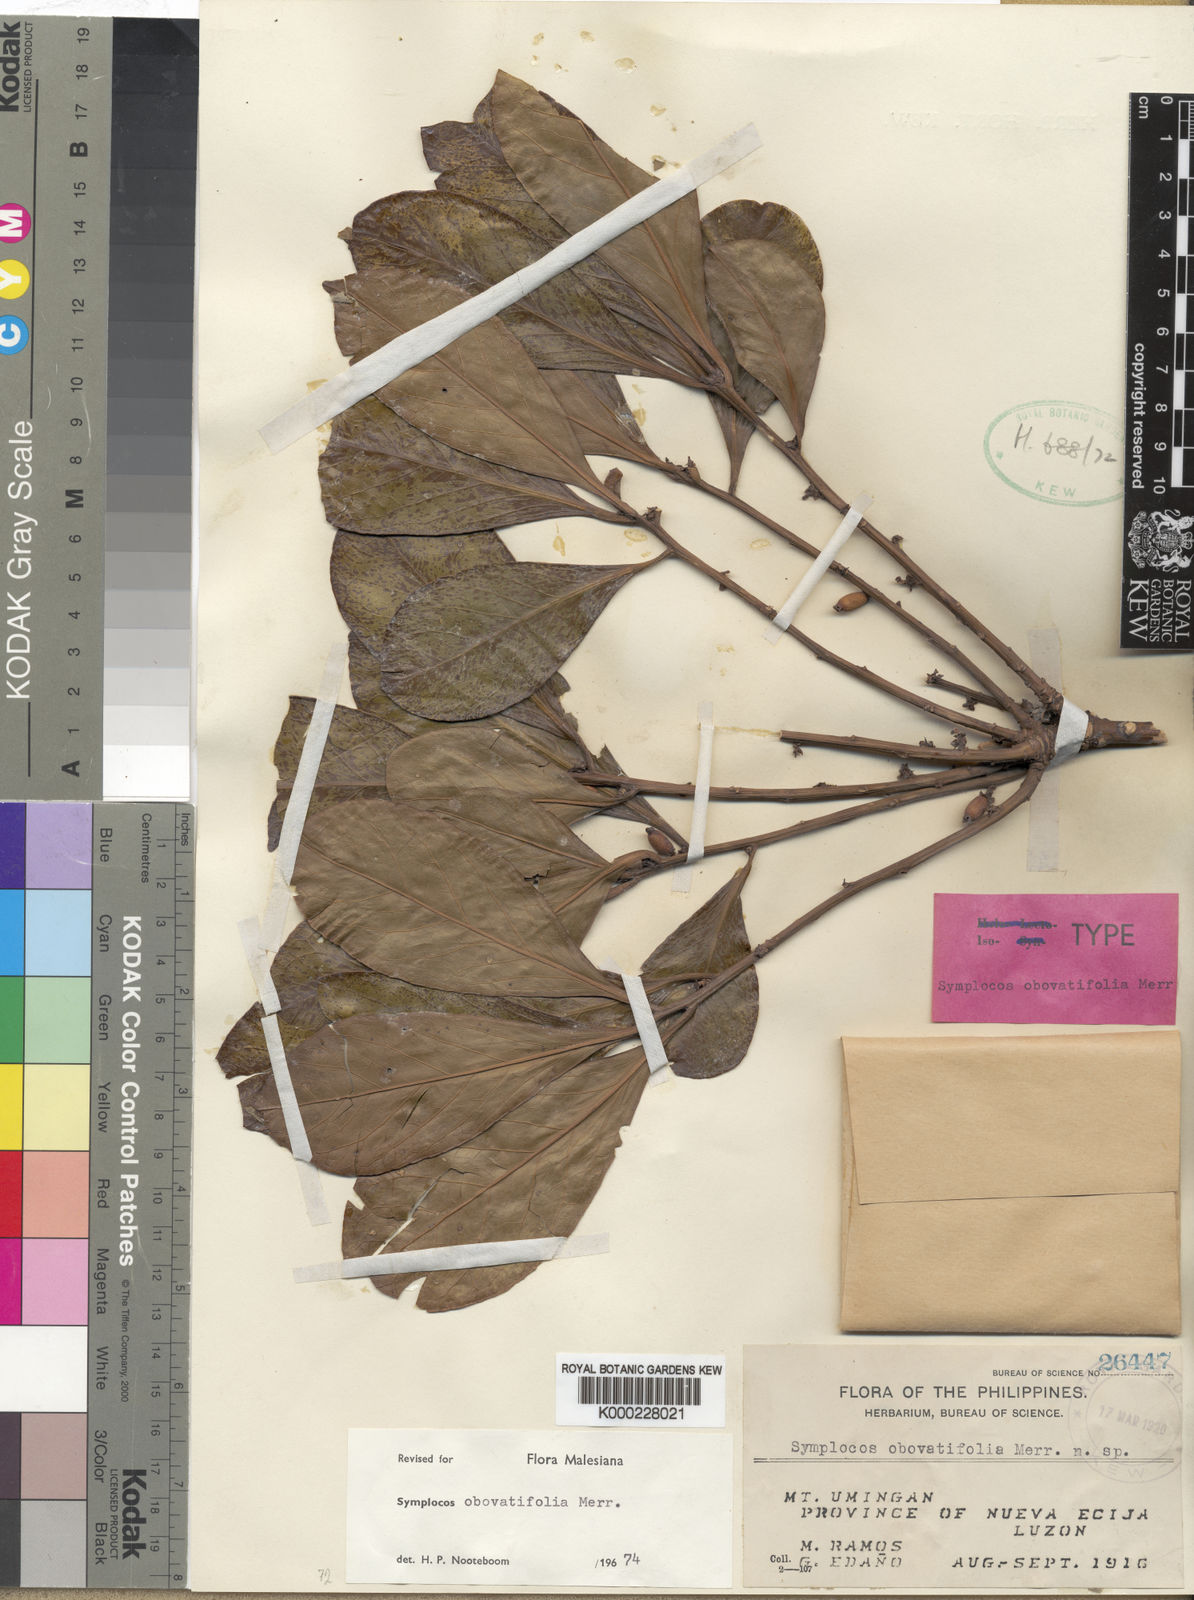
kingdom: Plantae
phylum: Tracheophyta
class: Magnoliopsida
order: Ericales
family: Symplocaceae
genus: Symplocos
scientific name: Symplocos obovatifolia
